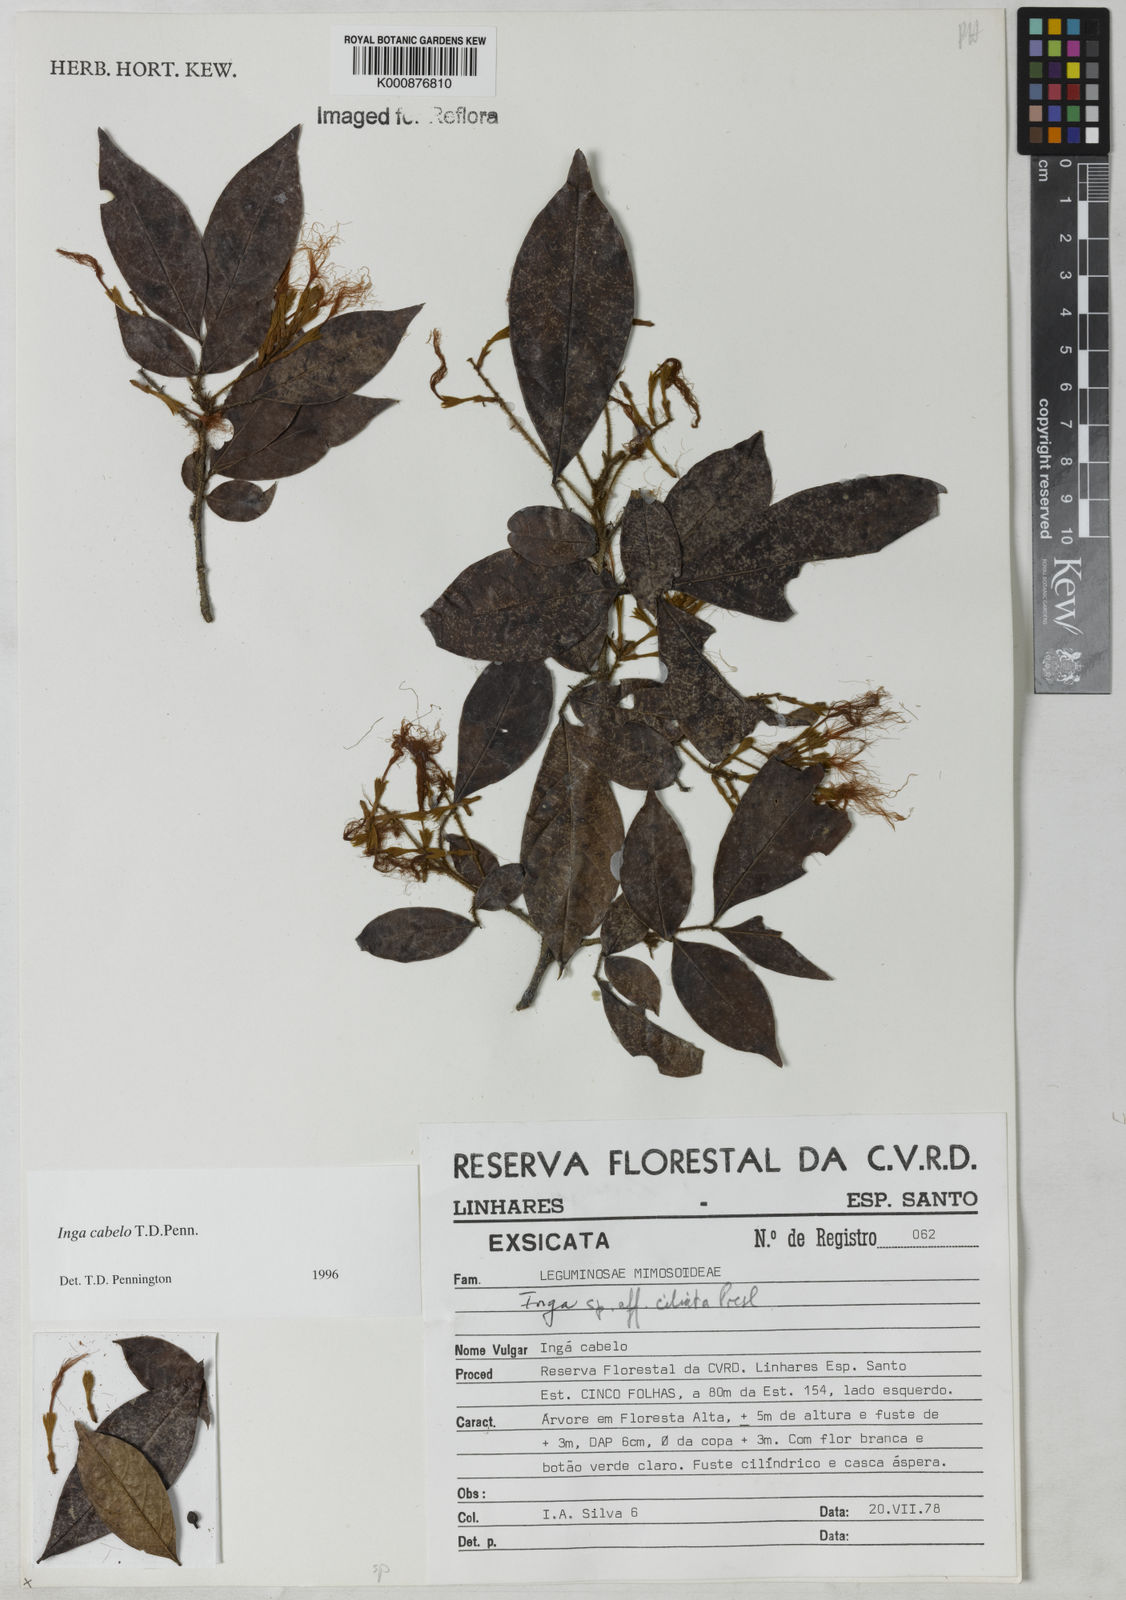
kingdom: Plantae
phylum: Tracheophyta
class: Magnoliopsida
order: Fabales
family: Fabaceae
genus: Inga
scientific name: Inga cabelo
